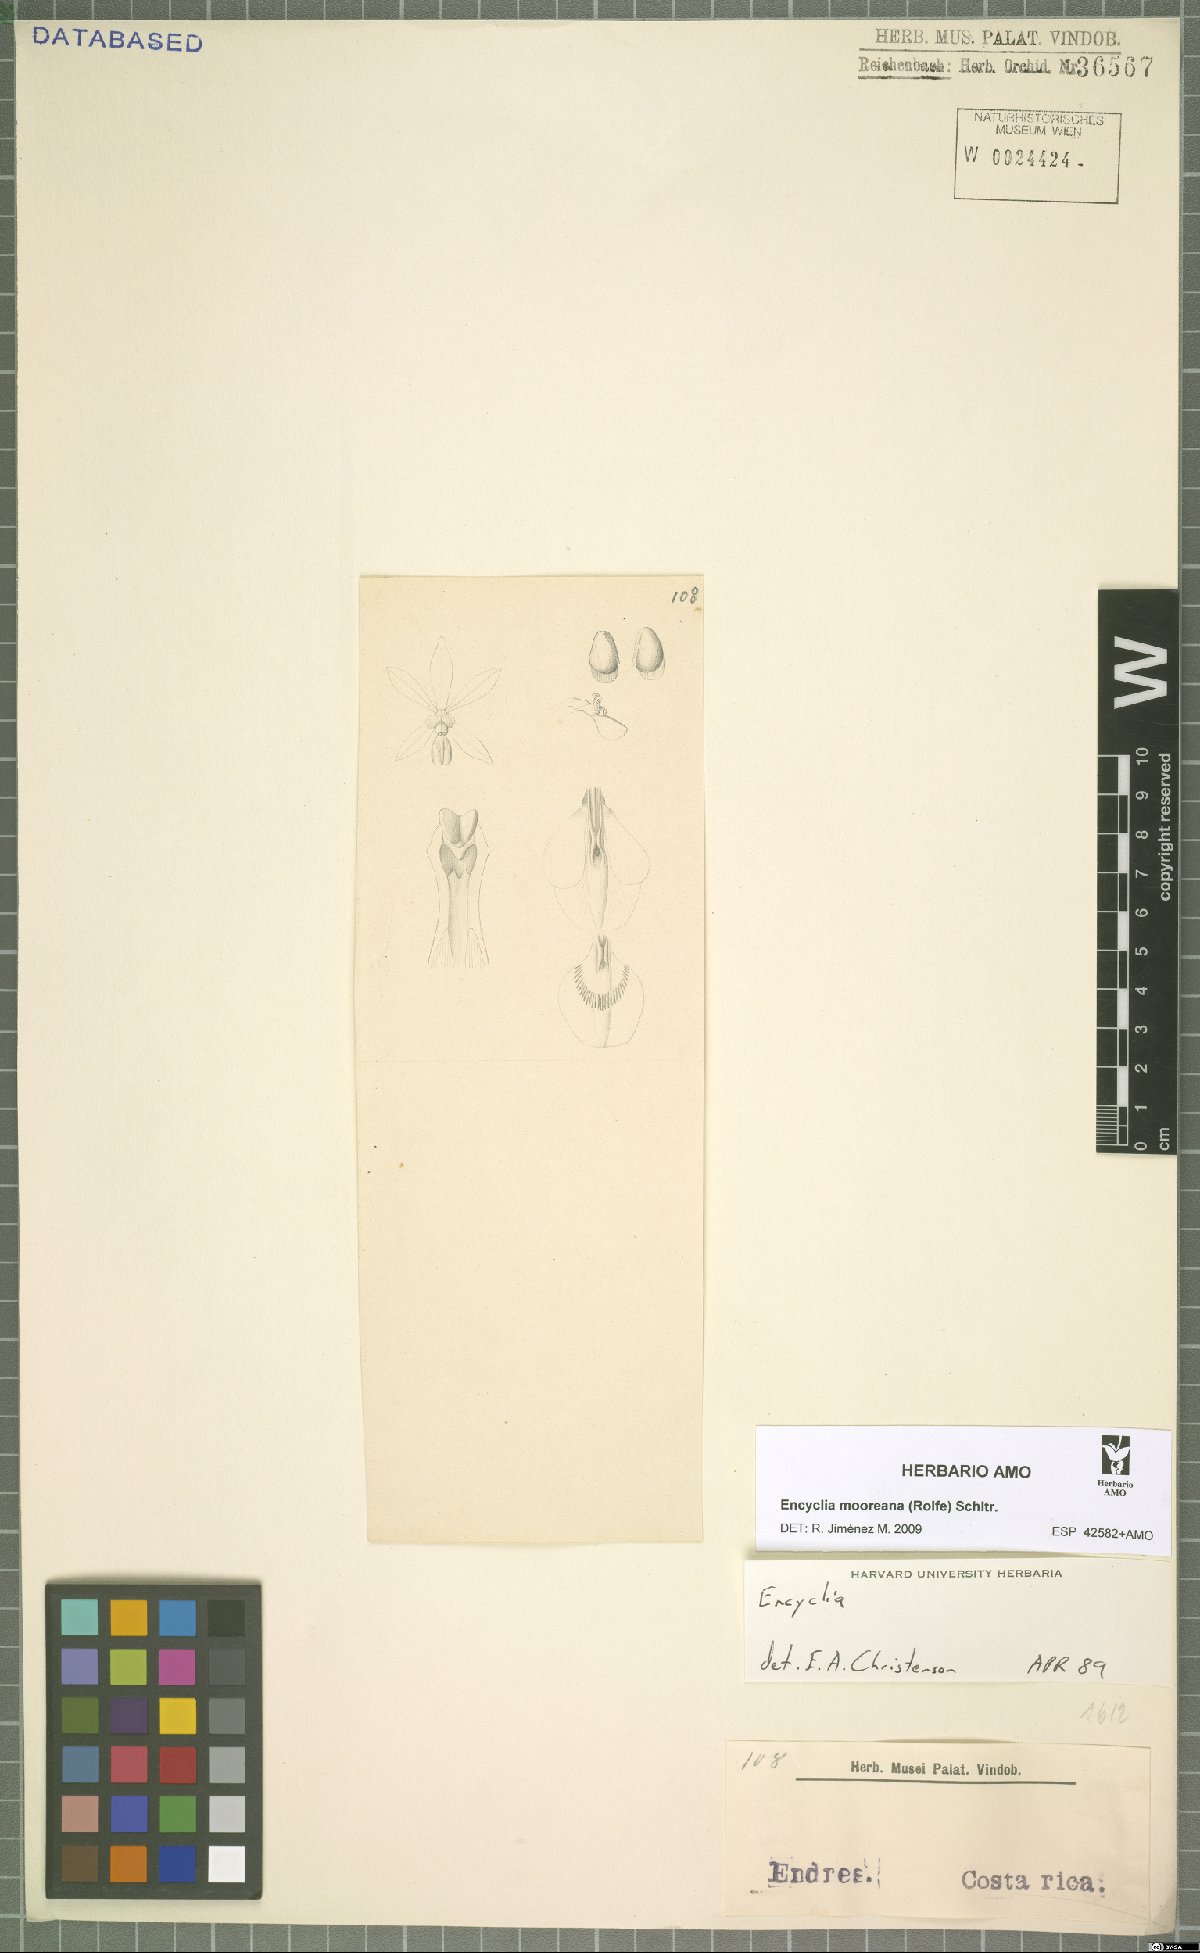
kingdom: Plantae
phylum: Tracheophyta
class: Liliopsida
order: Asparagales
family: Orchidaceae
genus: Encyclia
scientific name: Encyclia mooreana
